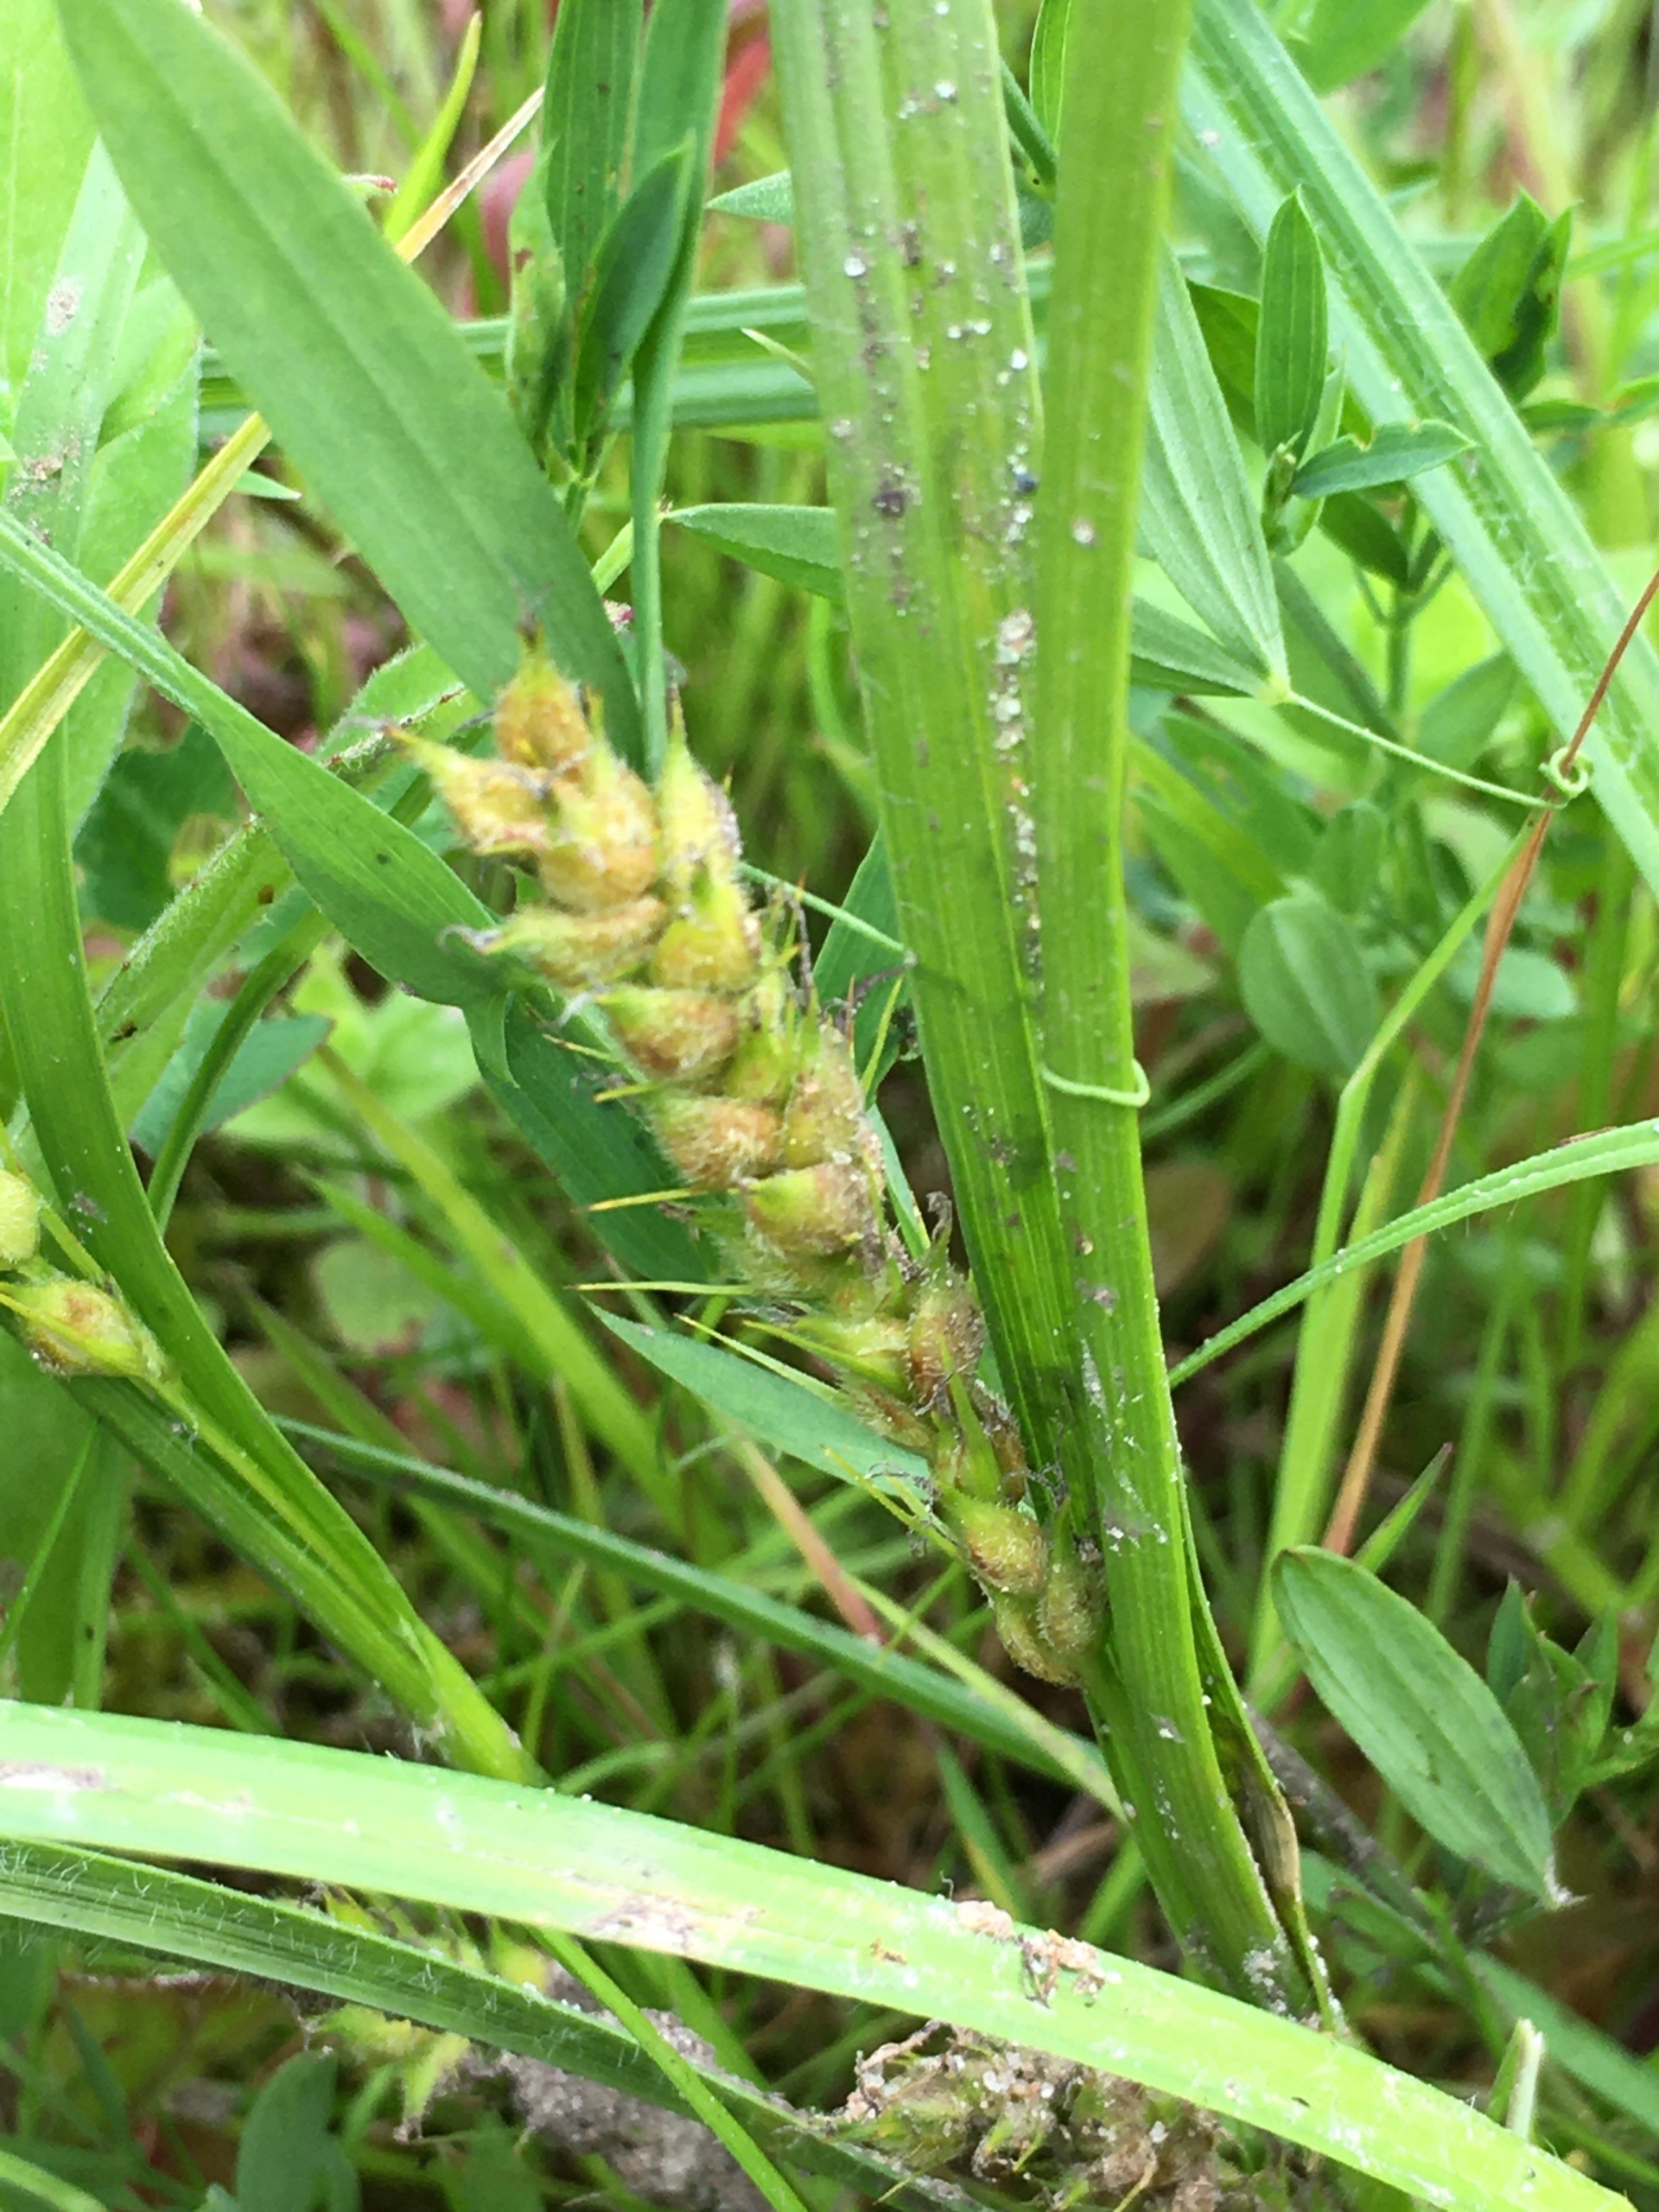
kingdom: Plantae
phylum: Tracheophyta
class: Liliopsida
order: Poales
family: Cyperaceae
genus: Carex
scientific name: Carex hirta
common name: Håret star
